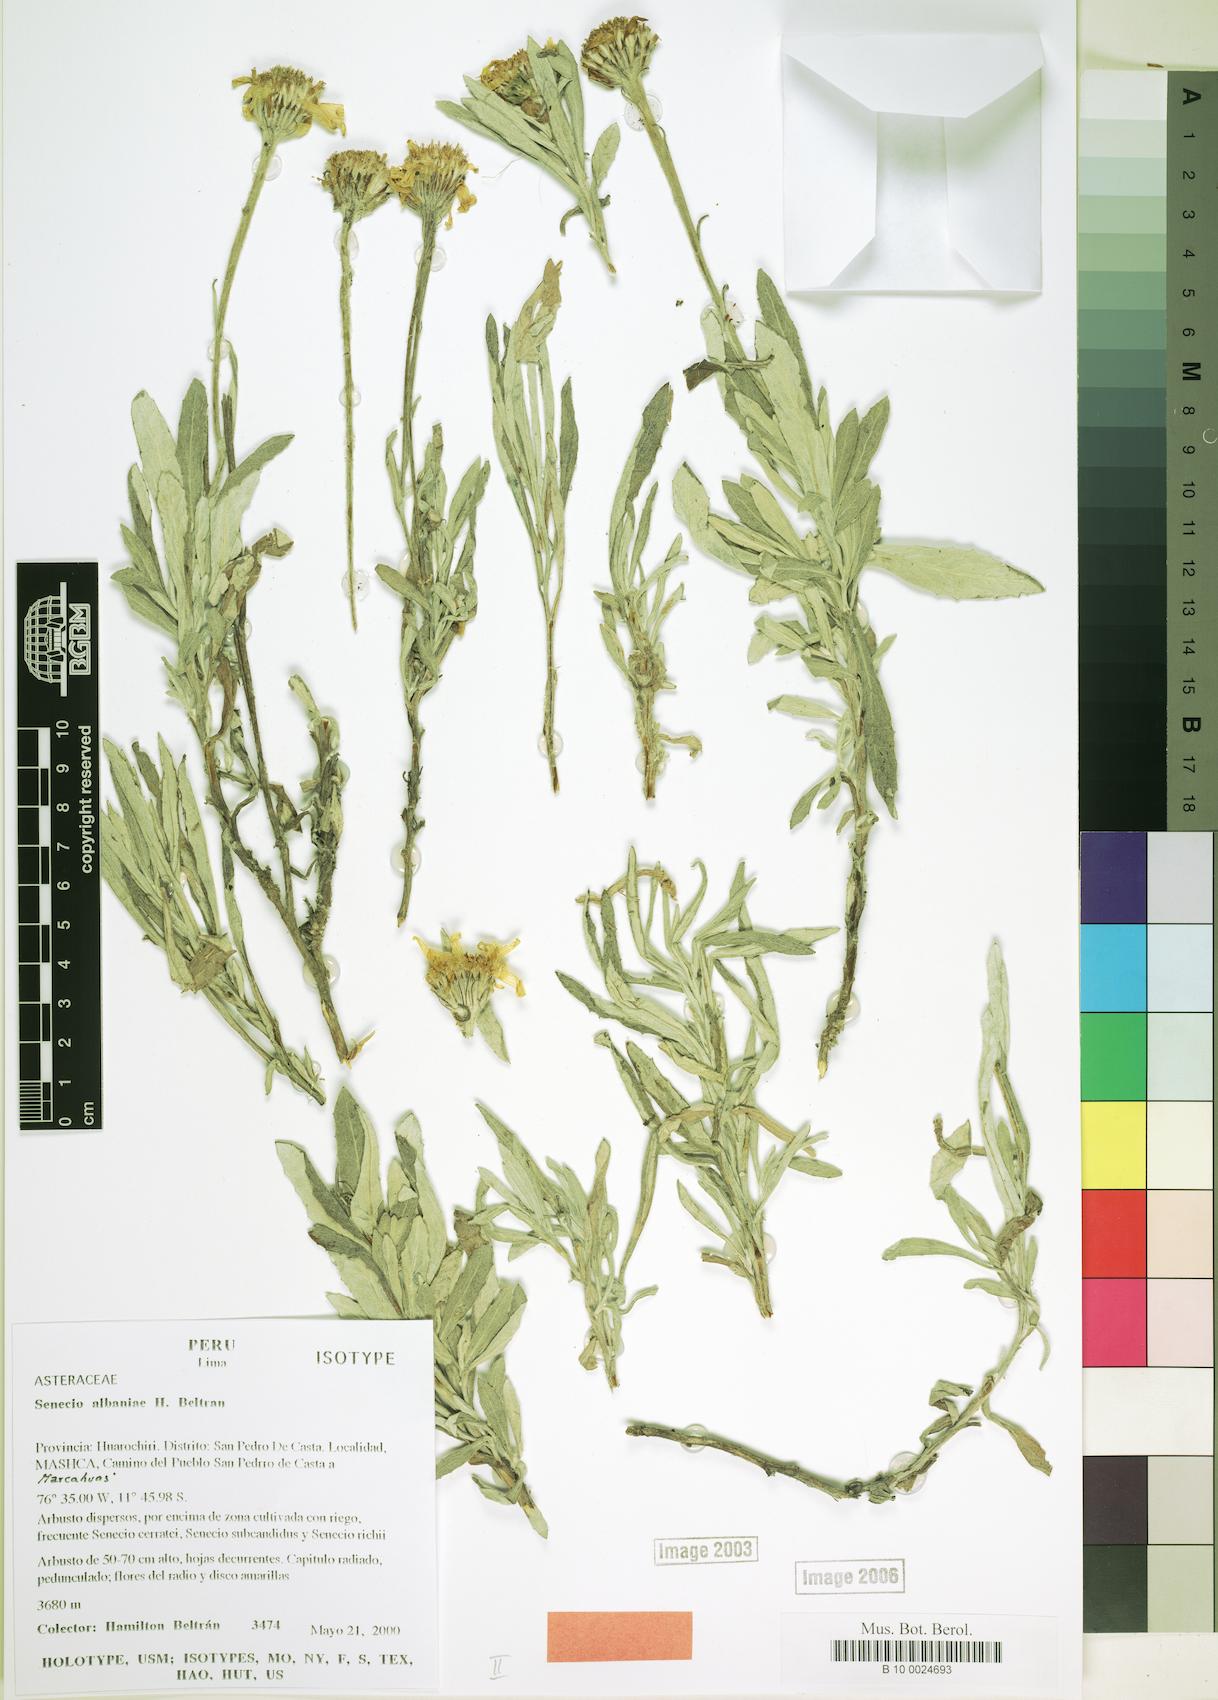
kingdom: Plantae
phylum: Tracheophyta
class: Magnoliopsida
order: Asterales
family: Asteraceae
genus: Lomanthus
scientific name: Lomanthus albaniae
